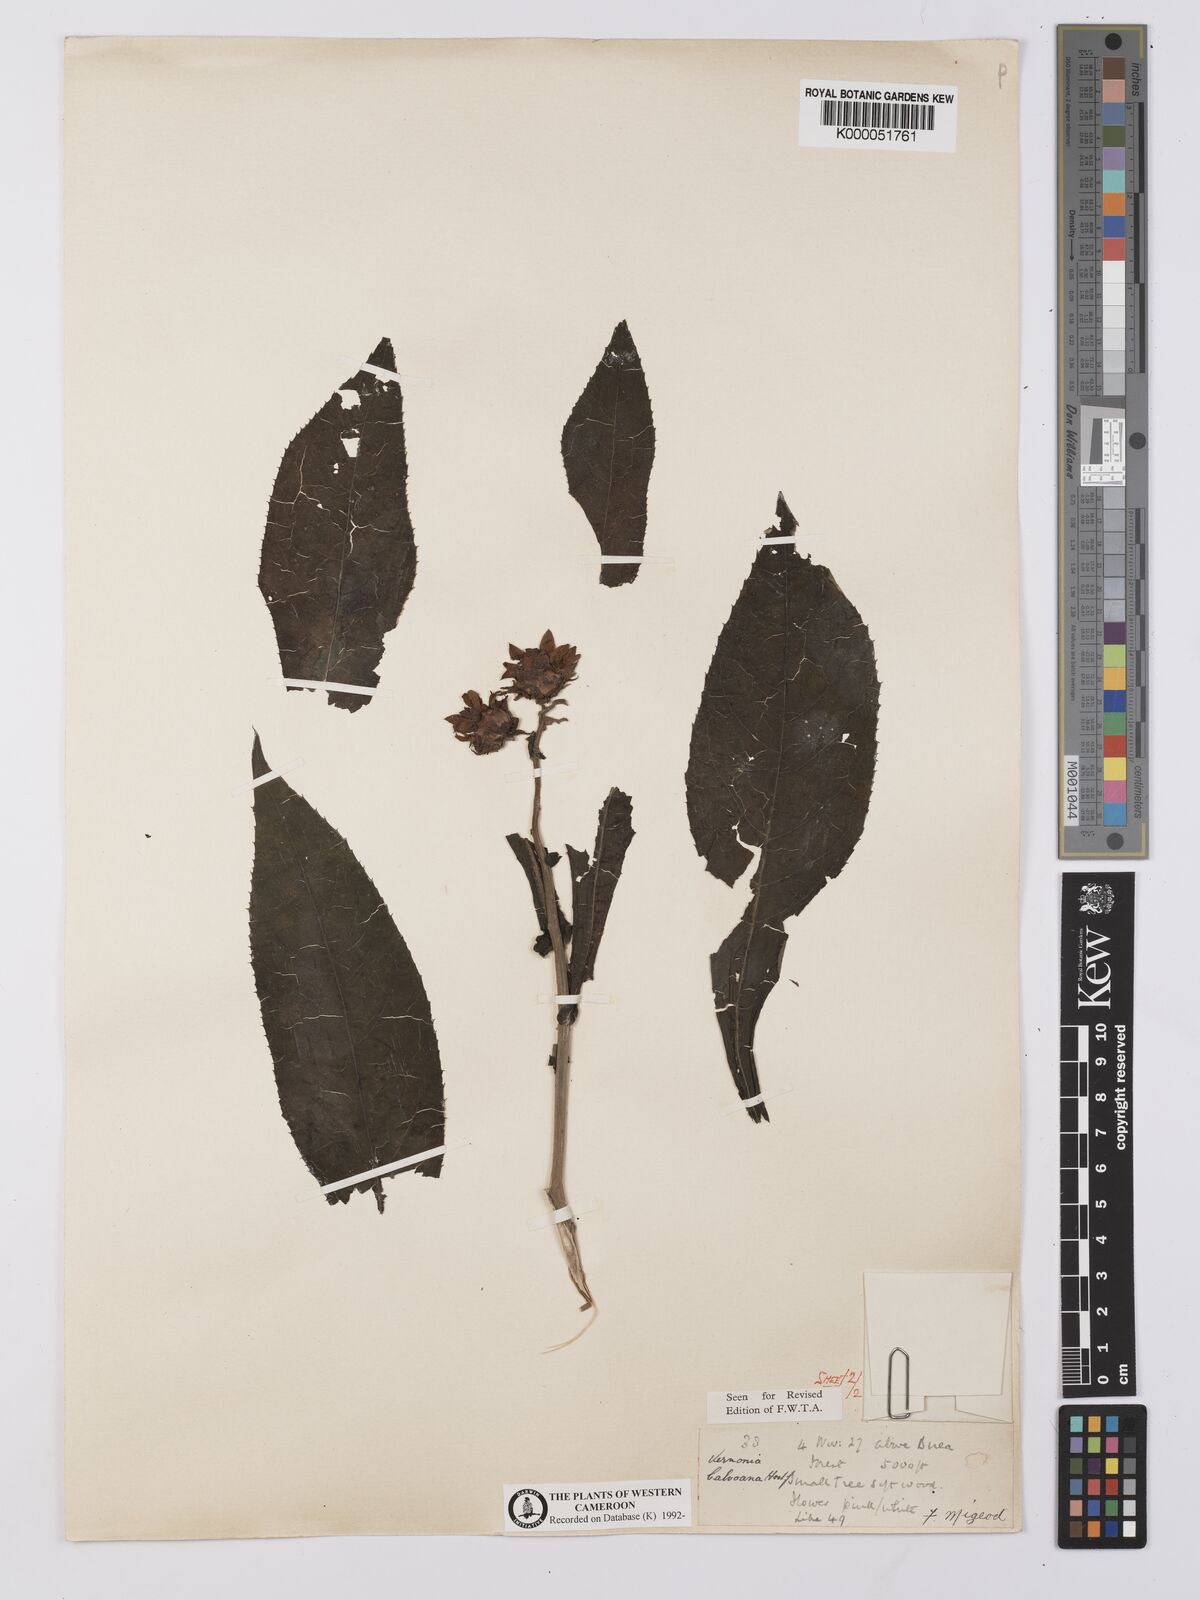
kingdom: Plantae
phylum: Tracheophyta
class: Magnoliopsida
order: Asterales
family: Asteraceae
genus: Baccharoides
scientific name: Baccharoides hymenolepis
